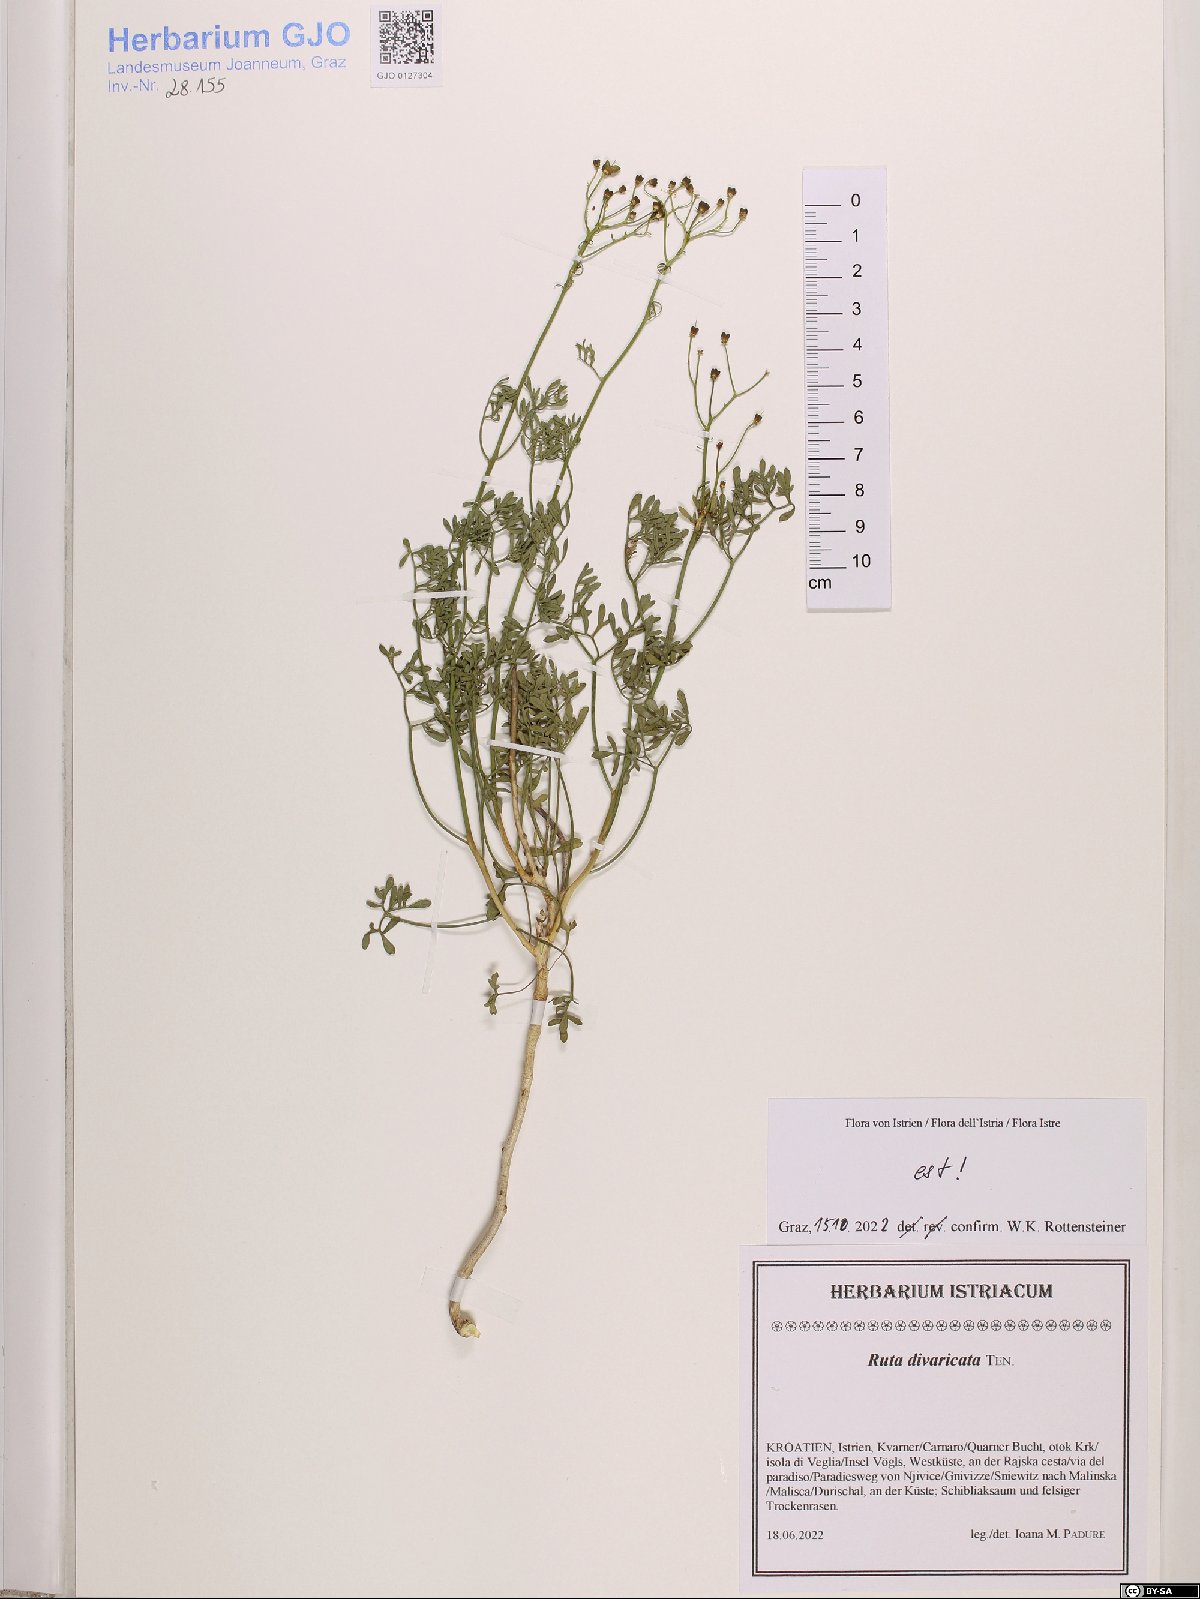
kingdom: Plantae
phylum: Tracheophyta
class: Magnoliopsida
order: Sapindales
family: Rutaceae
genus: Ruta
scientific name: Ruta graveolens
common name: Common rue
